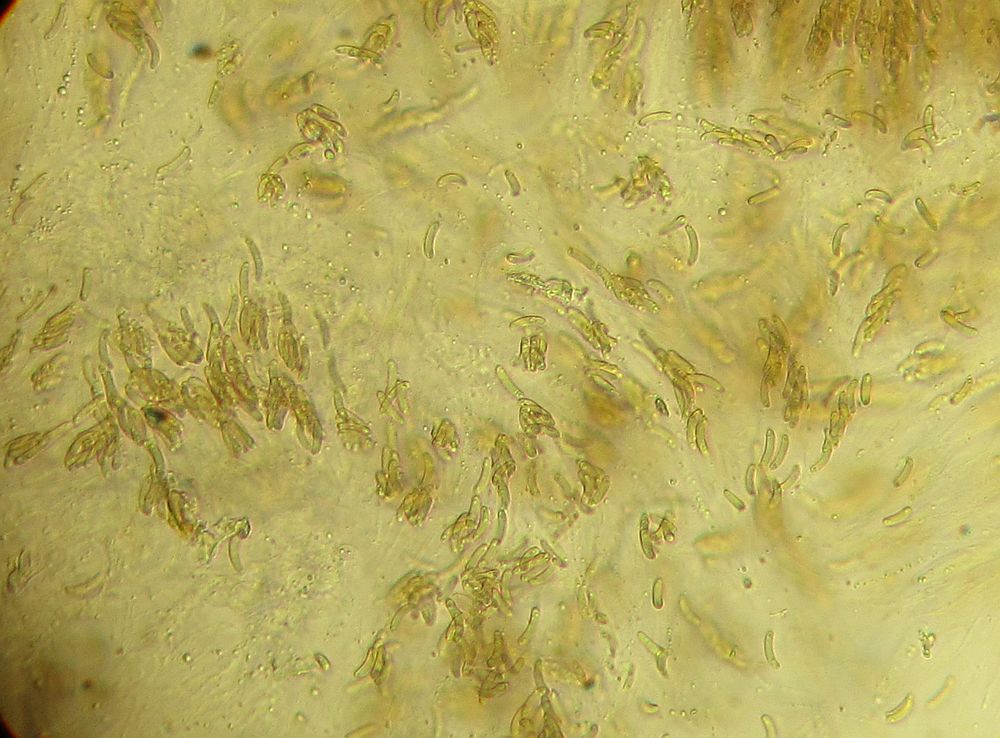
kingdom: Fungi
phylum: Ascomycota
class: Sordariomycetes
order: Xylariales
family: Diatrypaceae
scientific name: Diatrypaceae
